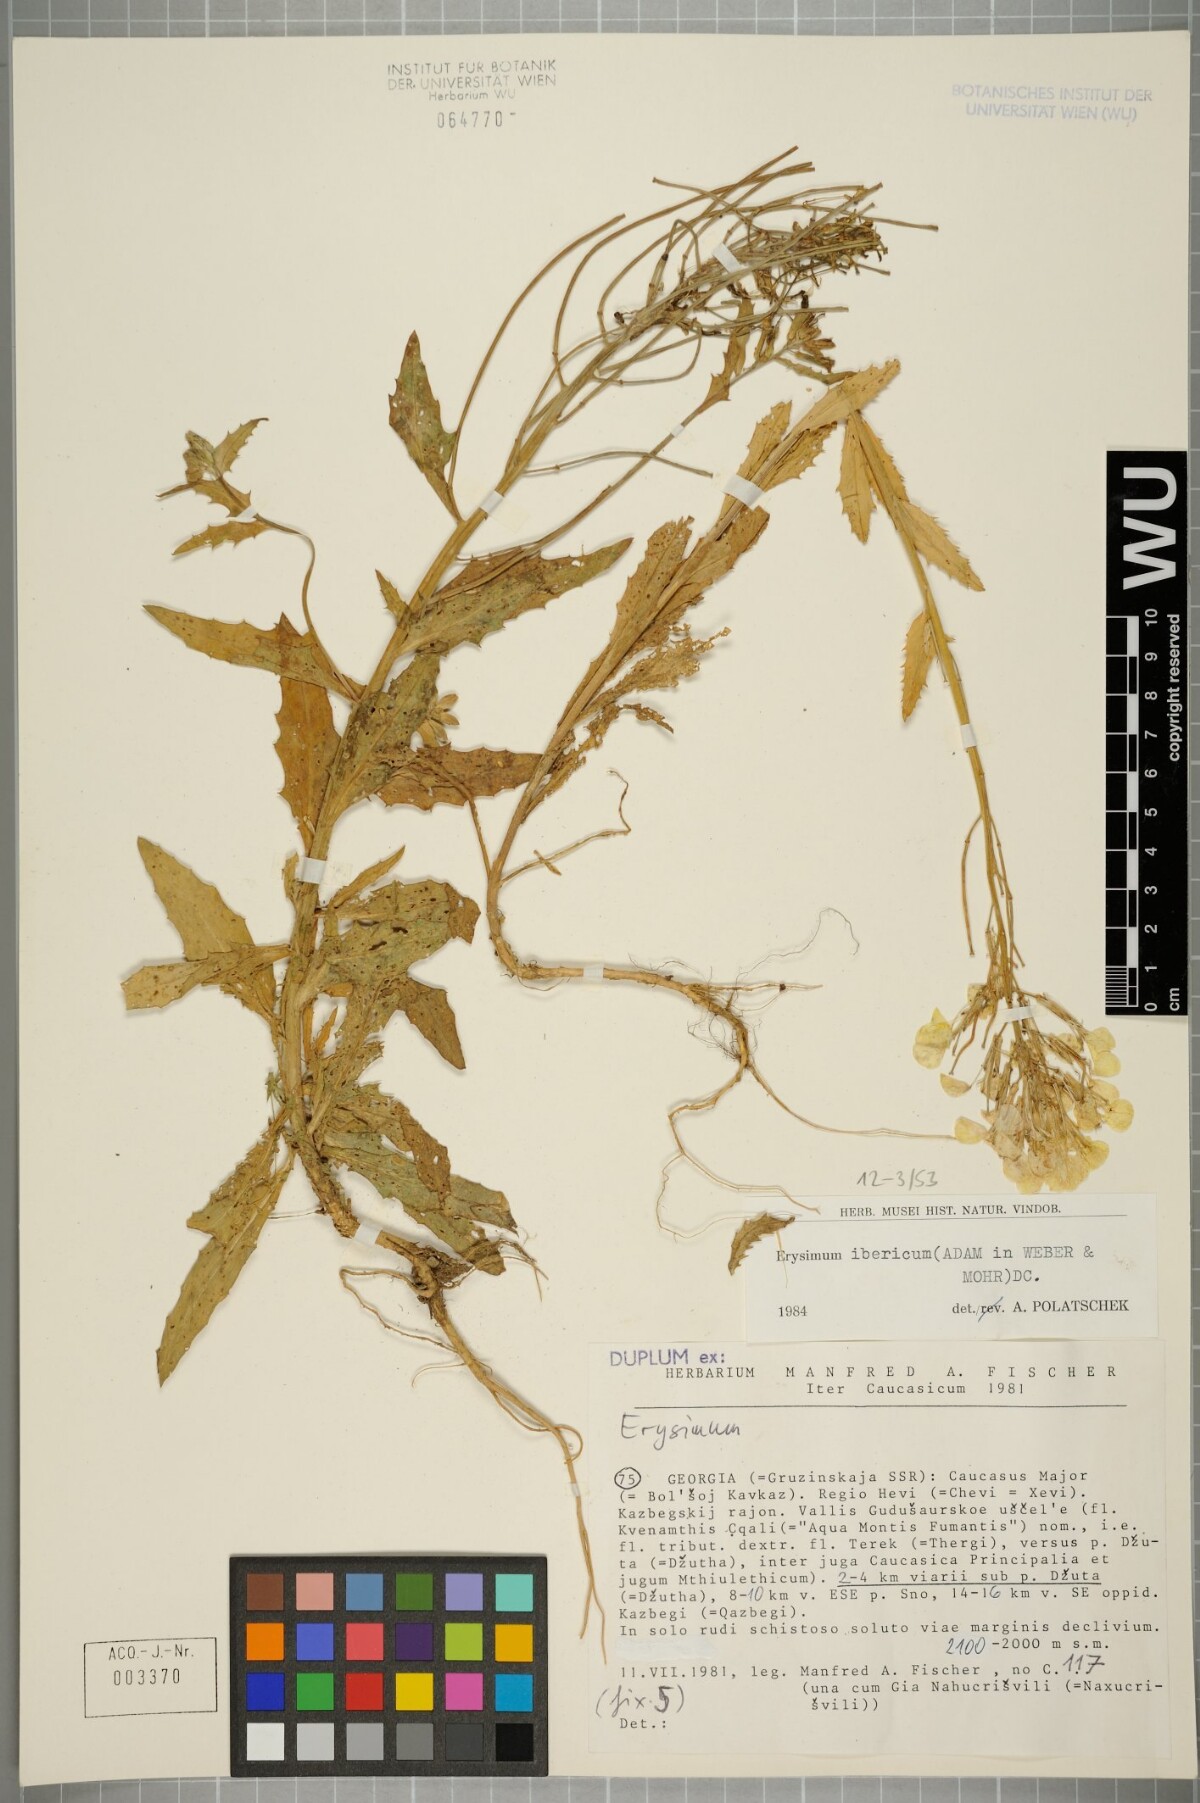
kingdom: Plantae
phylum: Tracheophyta
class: Magnoliopsida
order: Brassicales
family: Brassicaceae
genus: Erysimum
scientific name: Erysimum ibericum
